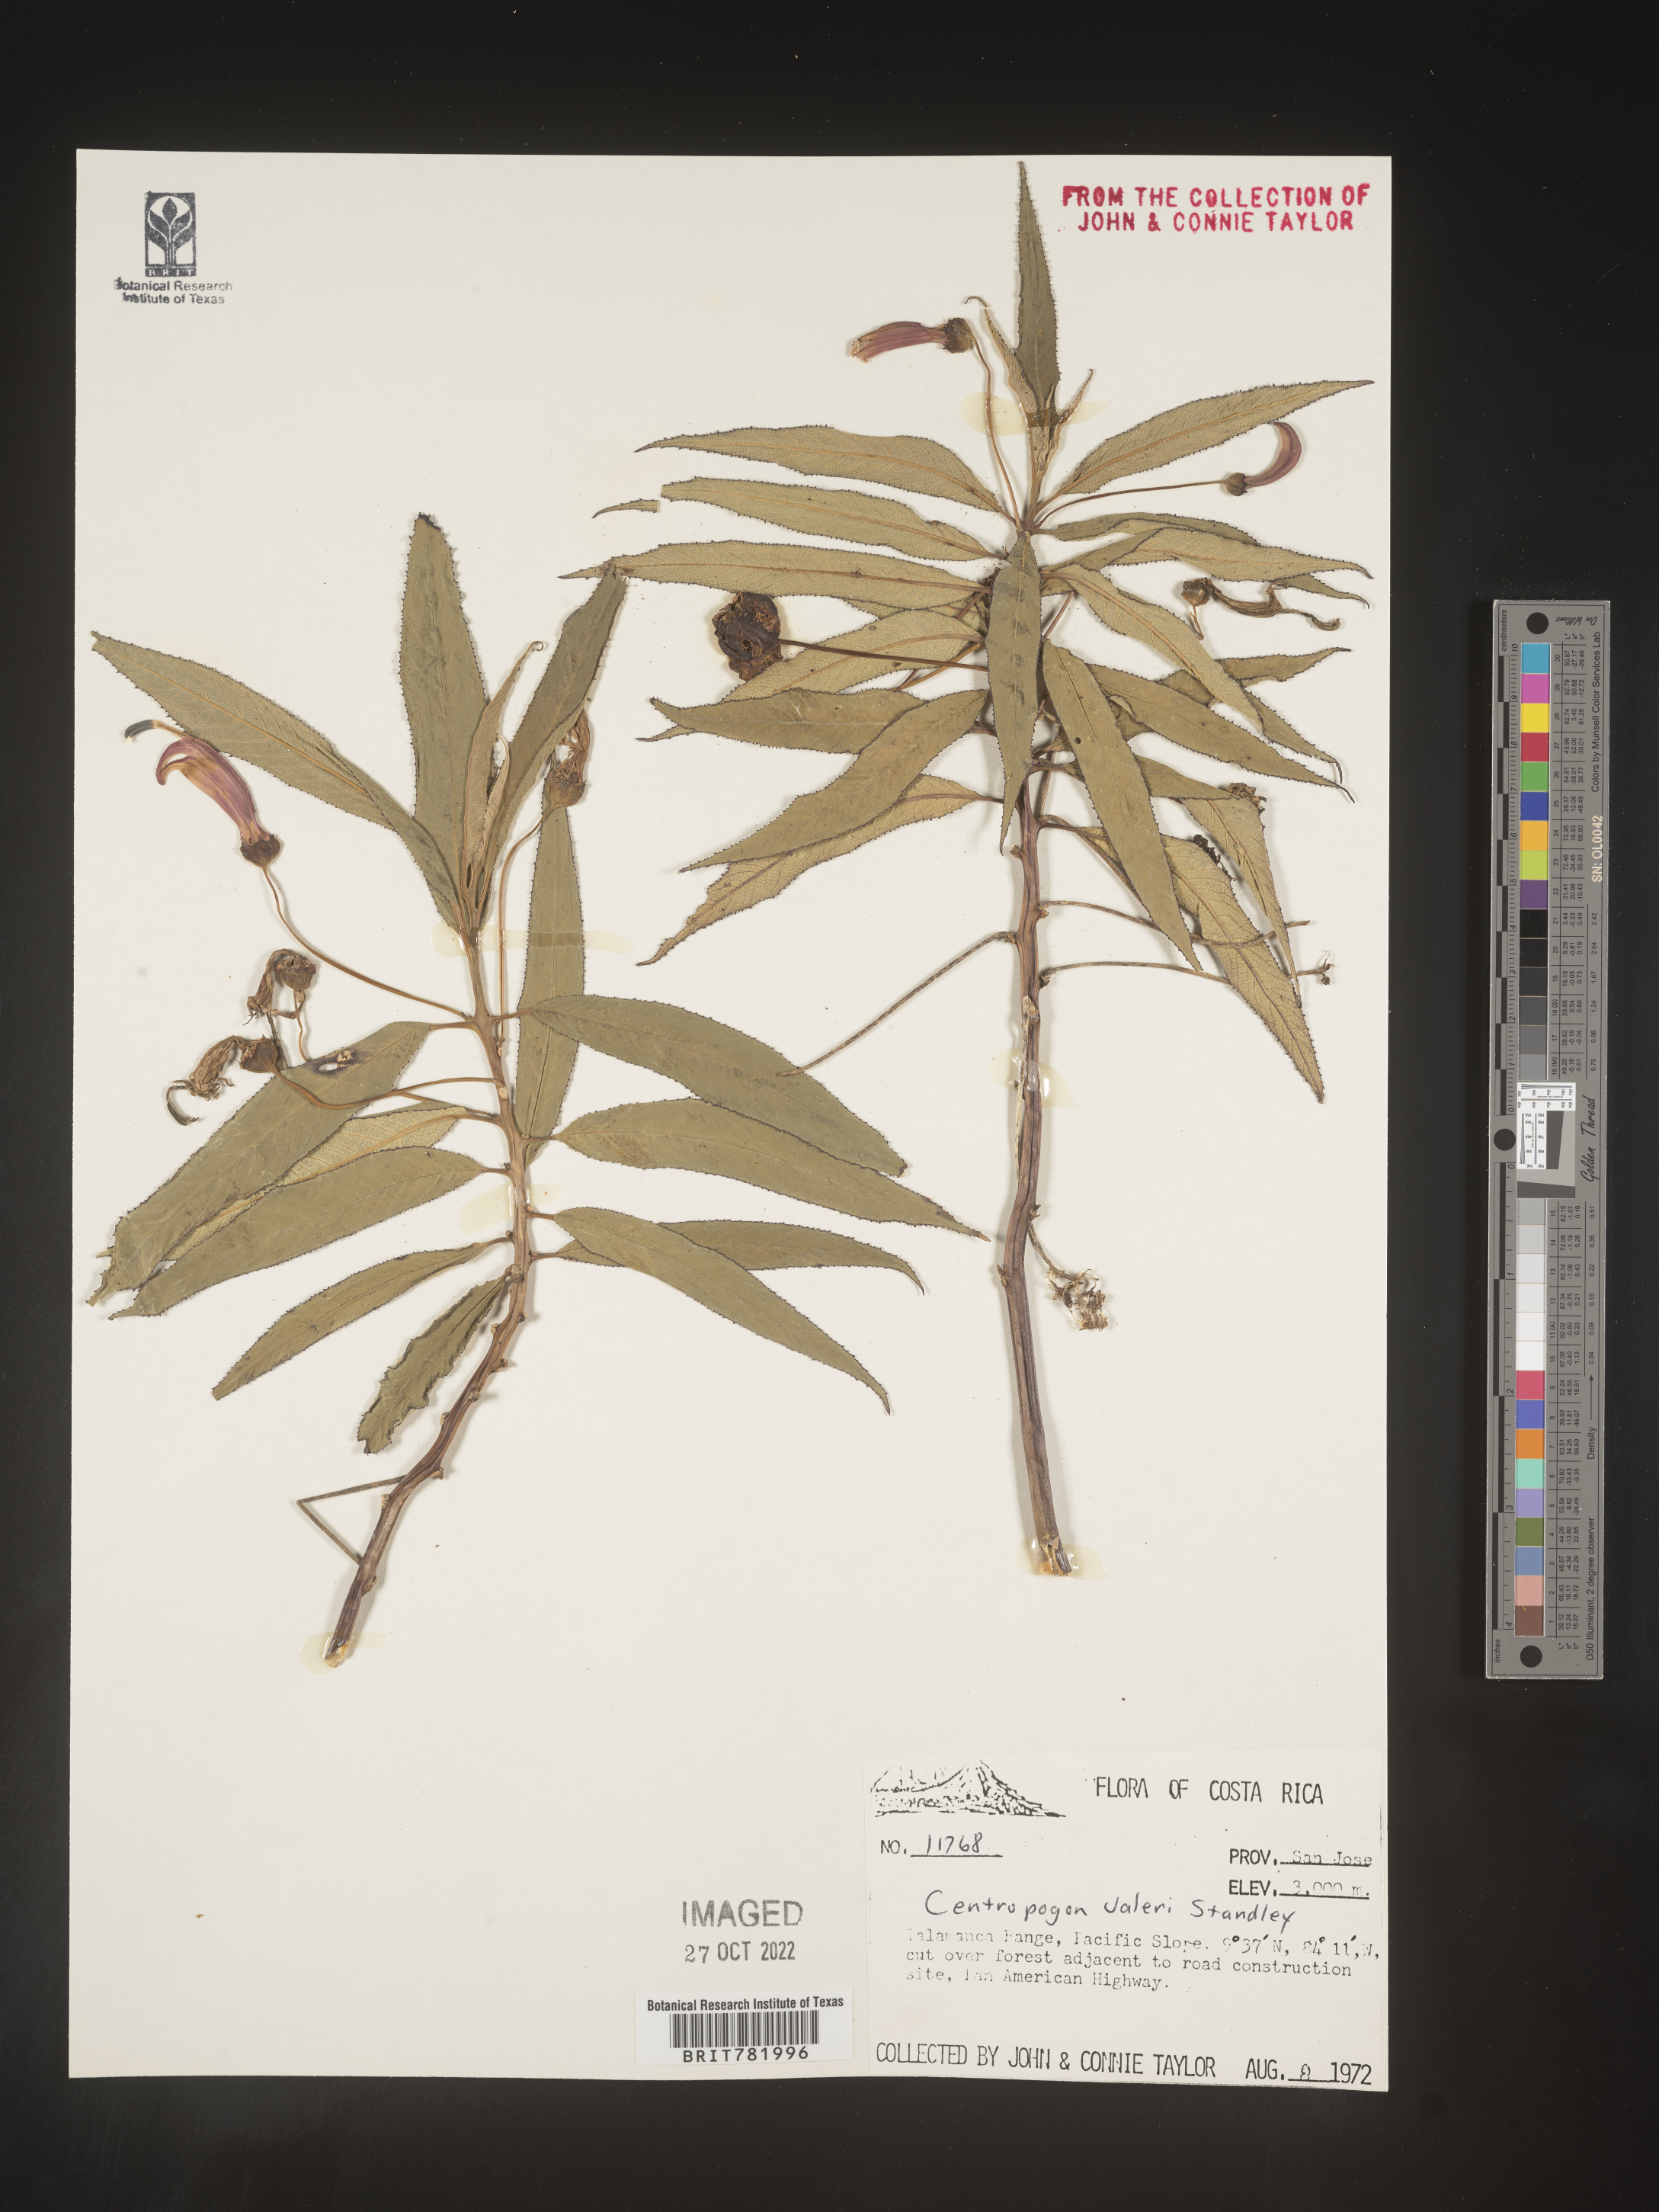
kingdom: Plantae
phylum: Tracheophyta
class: Magnoliopsida
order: Asterales
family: Campanulaceae
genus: Centropogon
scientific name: Centropogon
